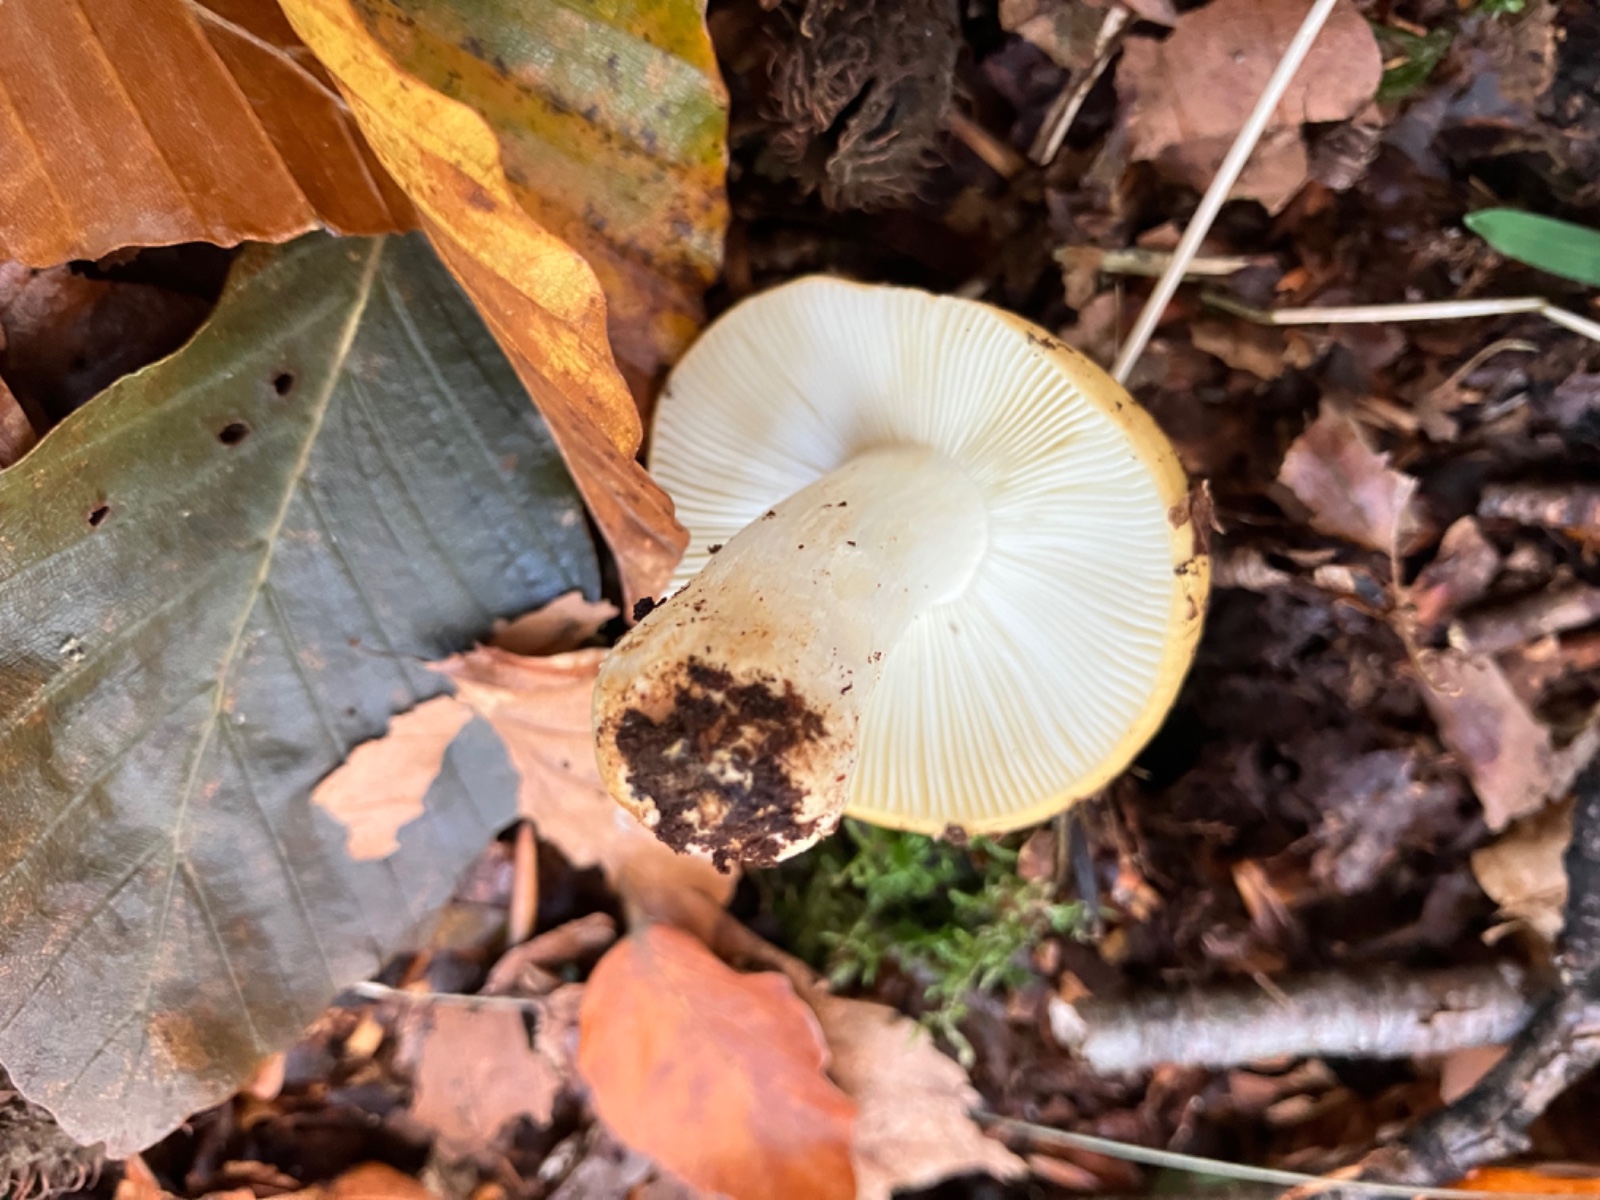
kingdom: Fungi
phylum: Basidiomycota
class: Agaricomycetes
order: Russulales
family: Russulaceae
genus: Russula
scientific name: Russula ochroleuca
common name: okkergul skørhat
